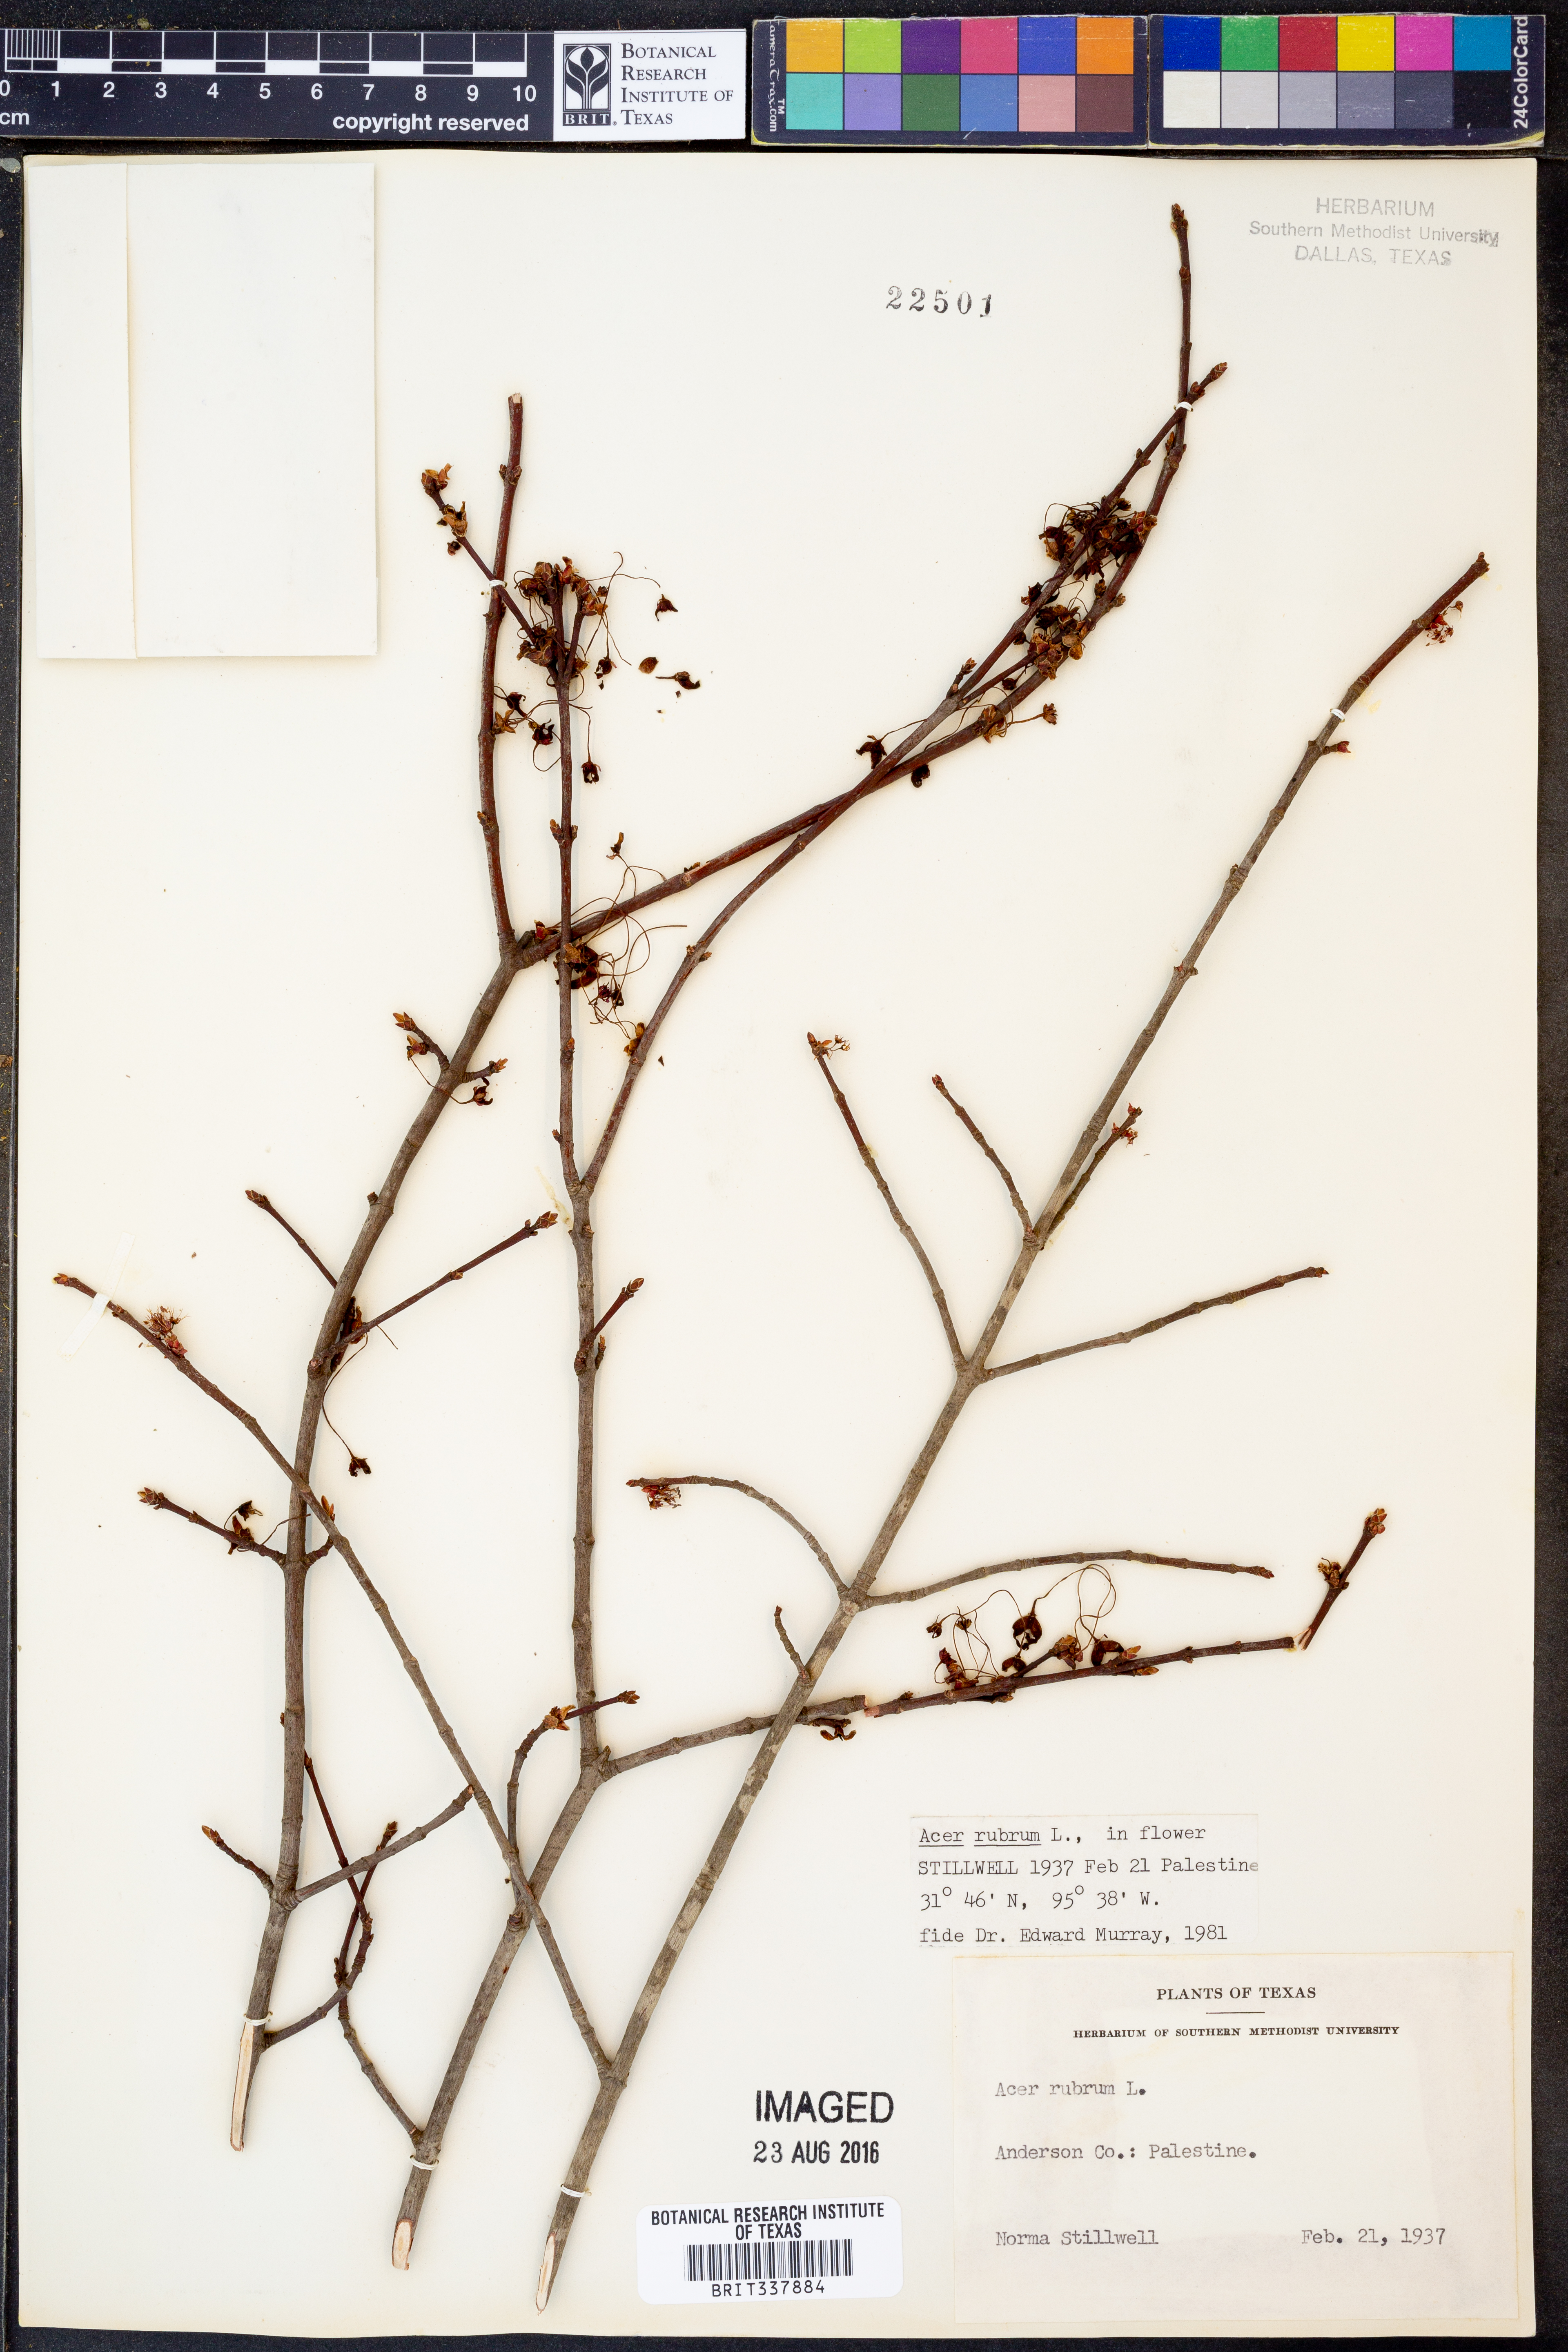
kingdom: Plantae
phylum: Tracheophyta
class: Magnoliopsida
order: Sapindales
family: Sapindaceae
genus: Acer
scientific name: Acer rubrum
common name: Red maple
